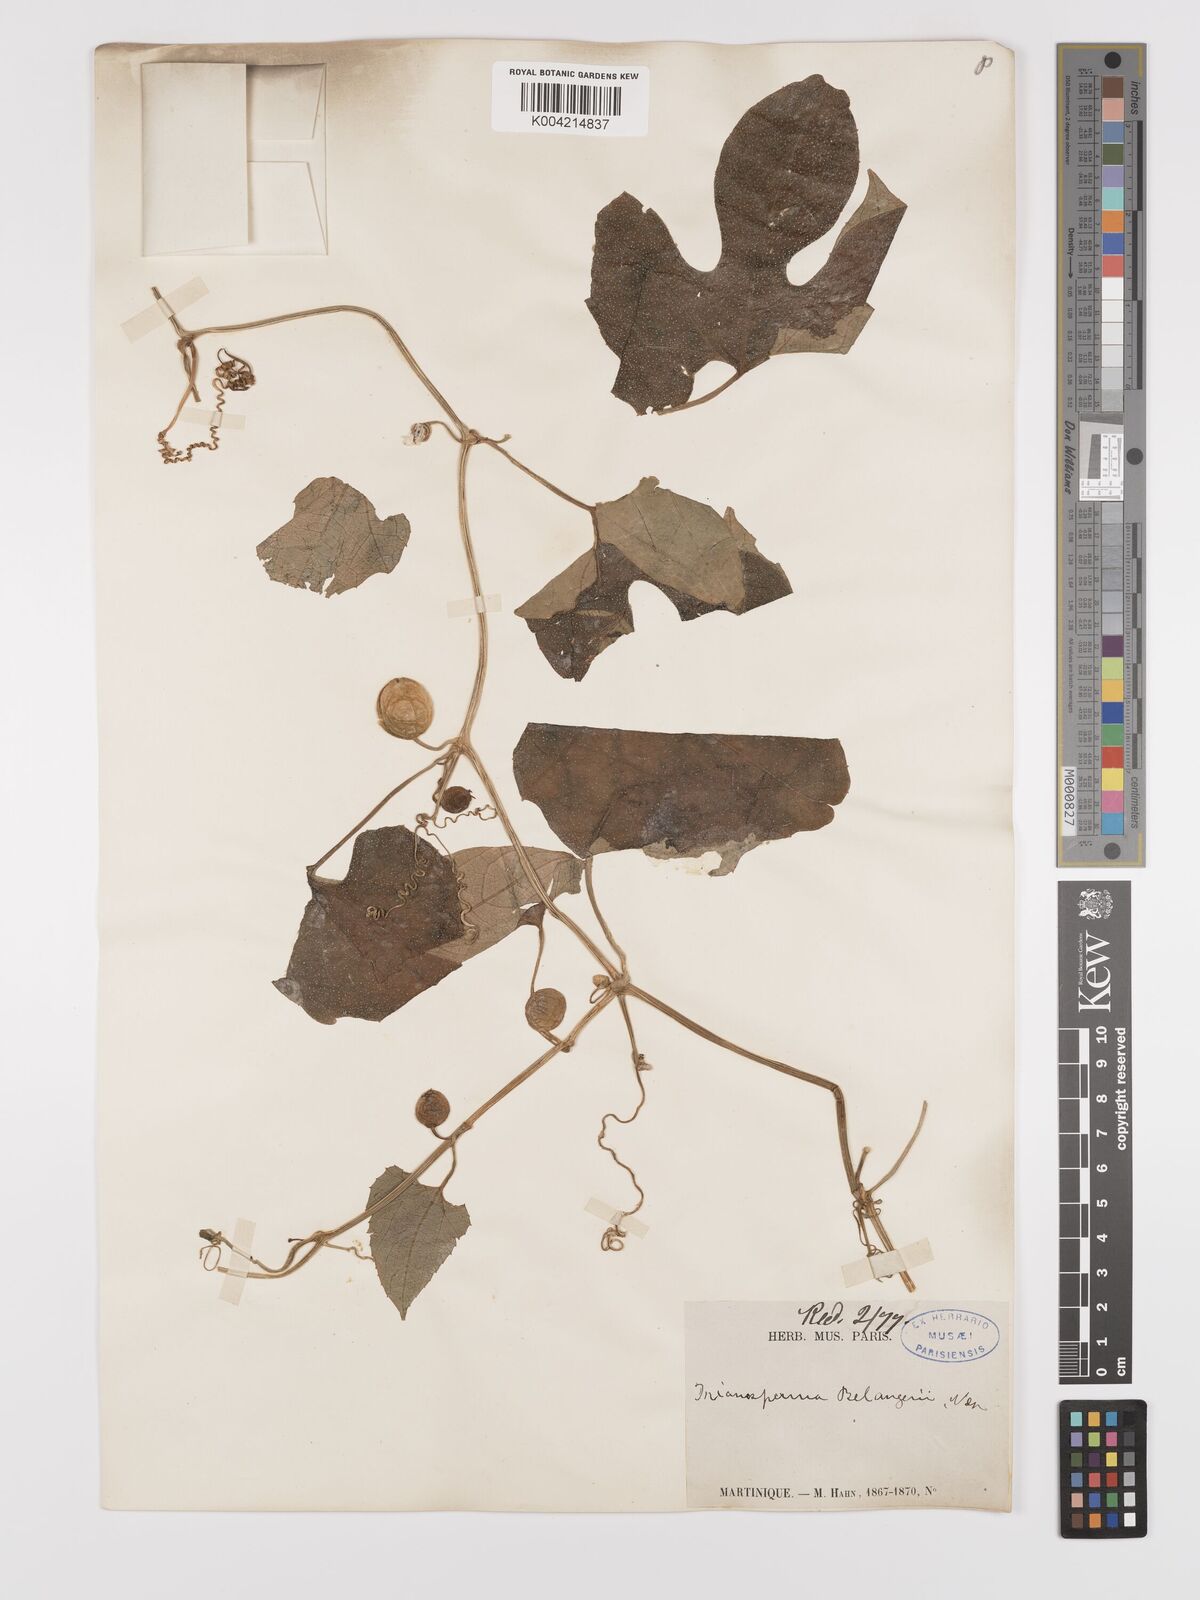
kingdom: Plantae
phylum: Tracheophyta
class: Magnoliopsida
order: Cucurbitales
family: Cucurbitaceae
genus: Cayaponia
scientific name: Cayaponia americana
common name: American melonleaf
